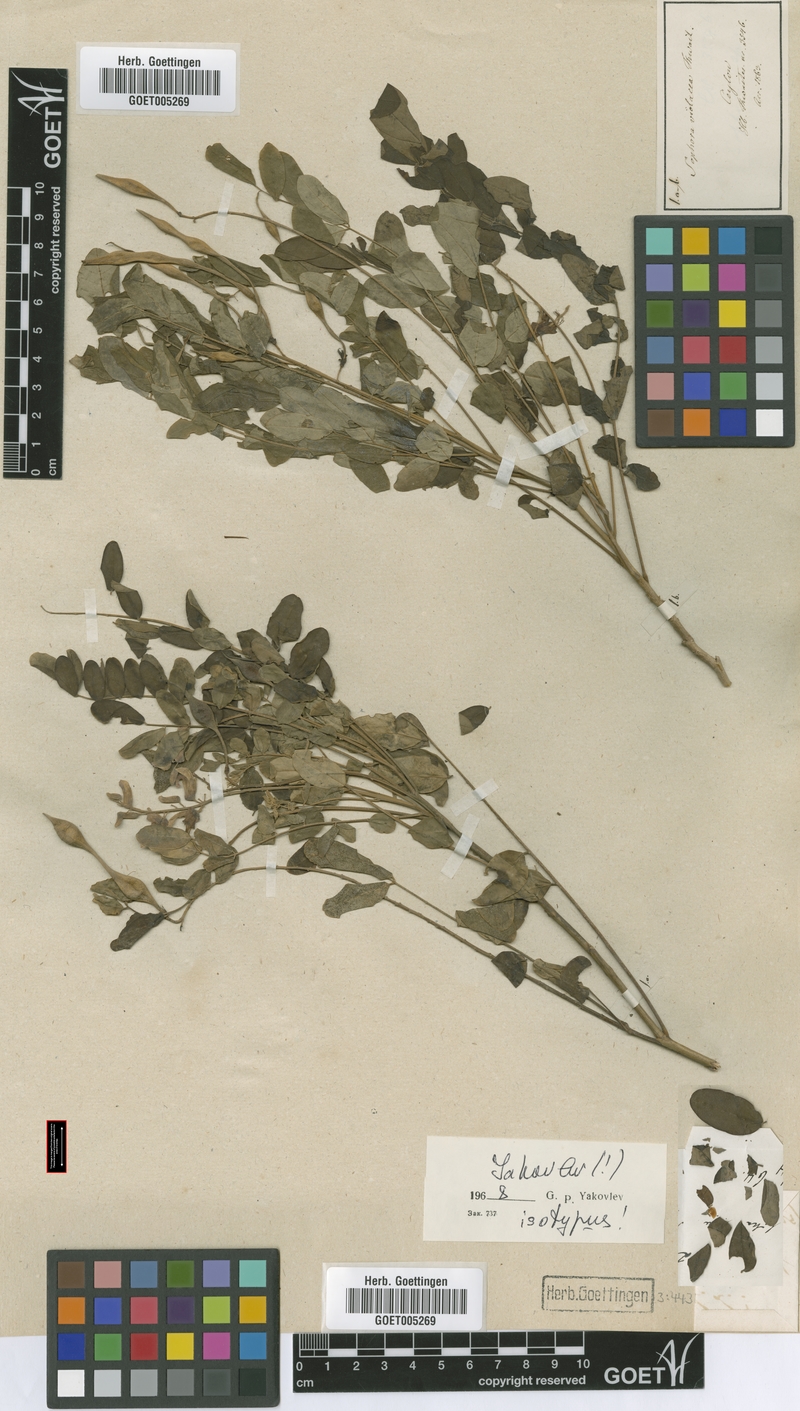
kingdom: Plantae
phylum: Tracheophyta
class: Magnoliopsida
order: Fabales
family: Fabaceae
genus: Sophora
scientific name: Sophora violacea
